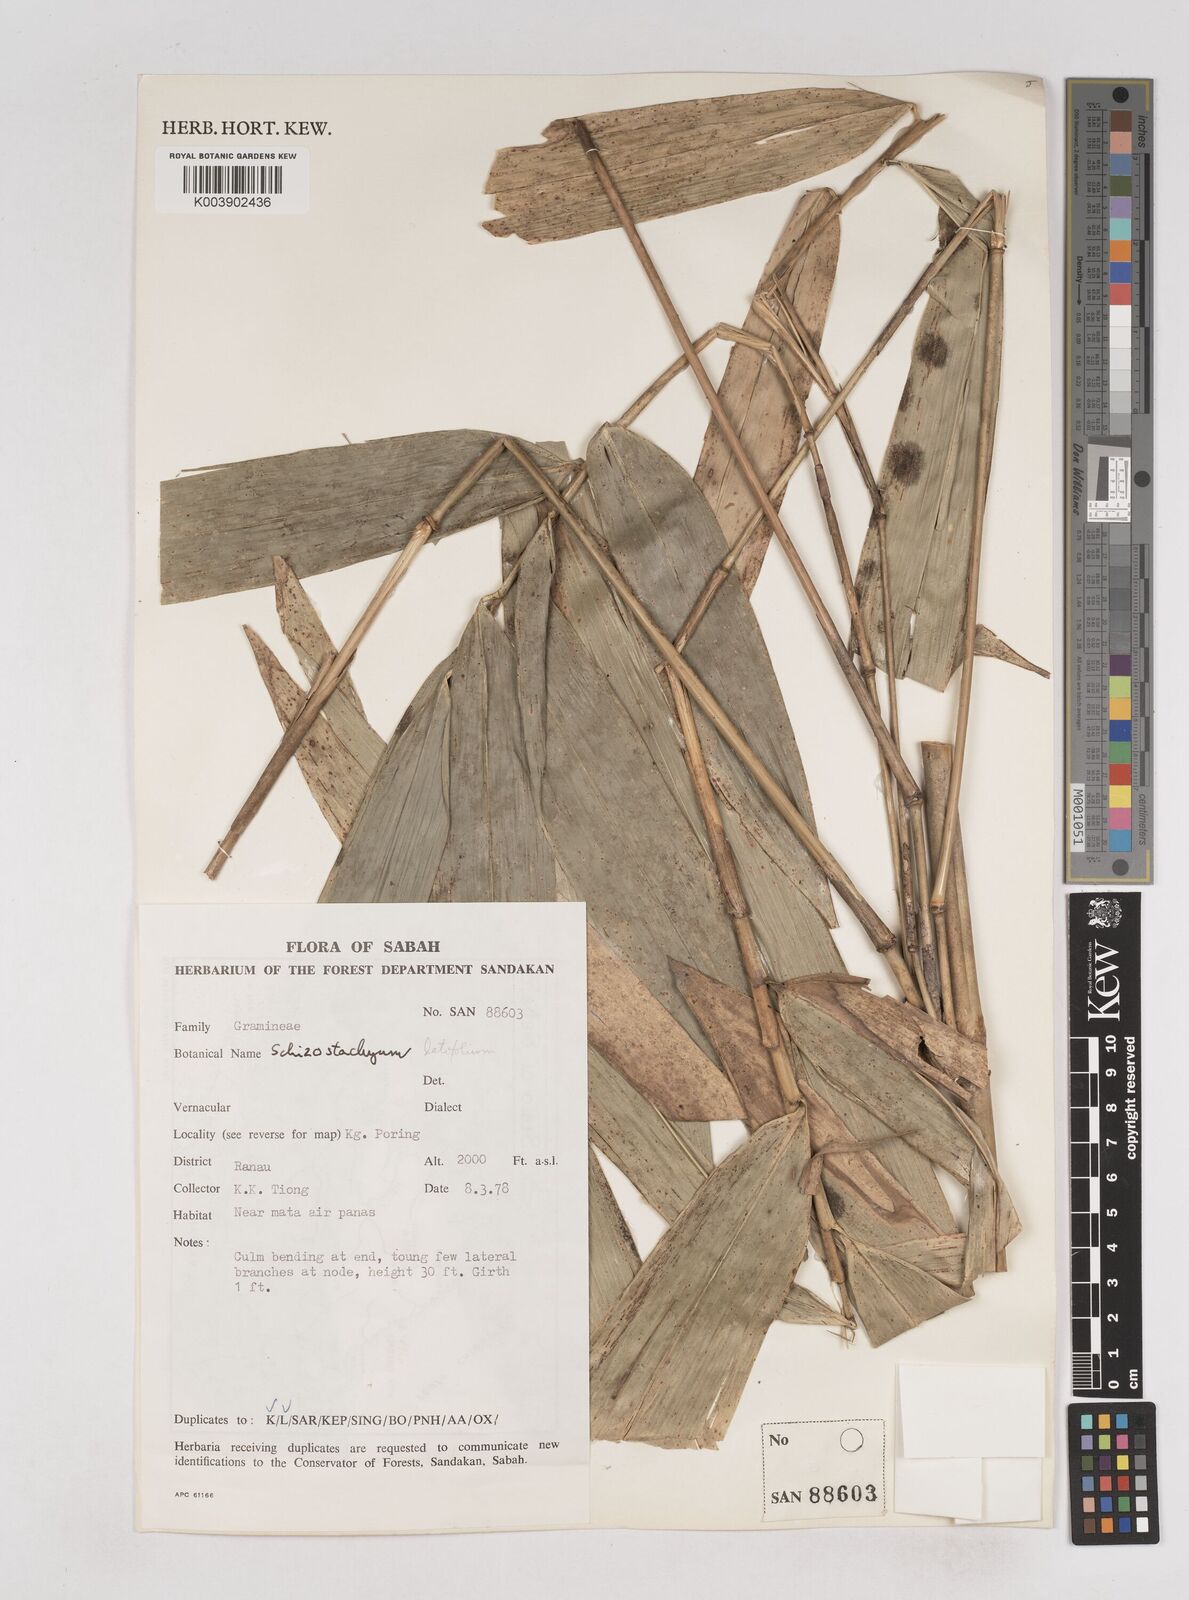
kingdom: Plantae
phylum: Tracheophyta
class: Liliopsida
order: Poales
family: Poaceae
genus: Schizostachyum
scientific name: Schizostachyum
